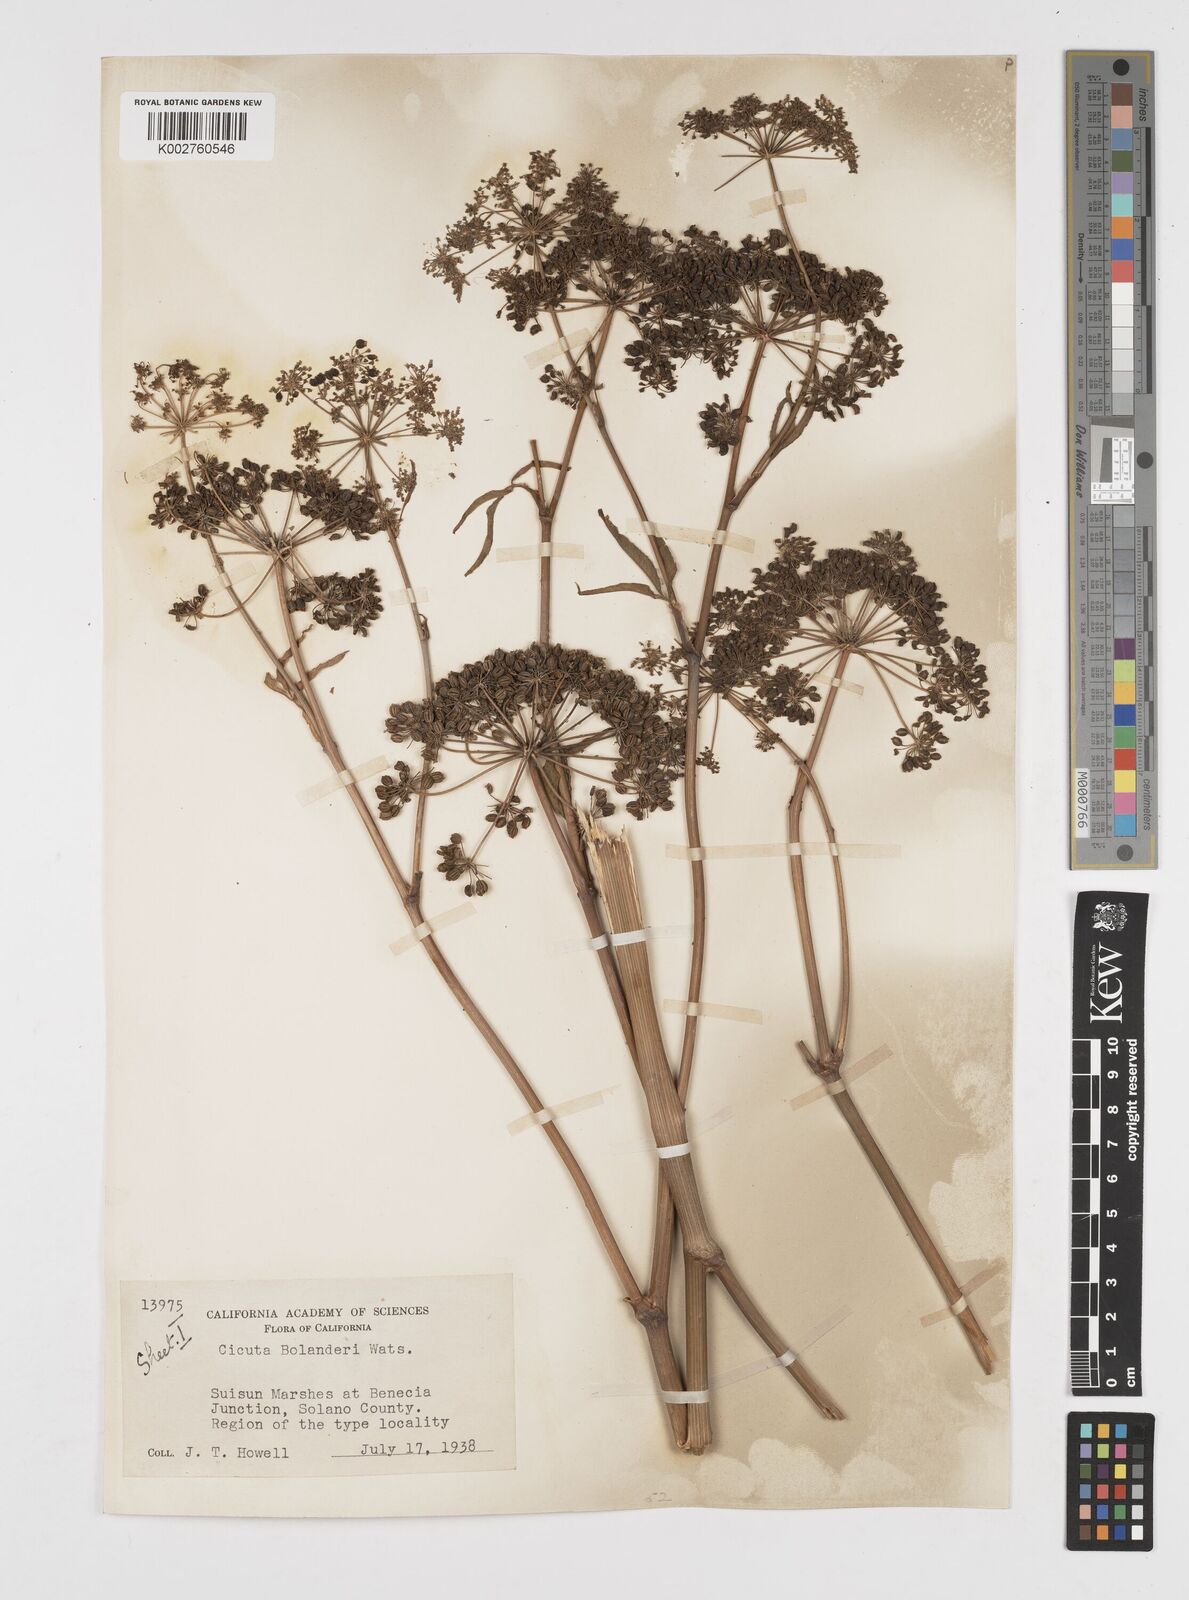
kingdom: Plantae
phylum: Tracheophyta
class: Magnoliopsida
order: Apiales
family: Apiaceae
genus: Cicuta
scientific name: Cicuta maculata
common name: Spotted cowbane
